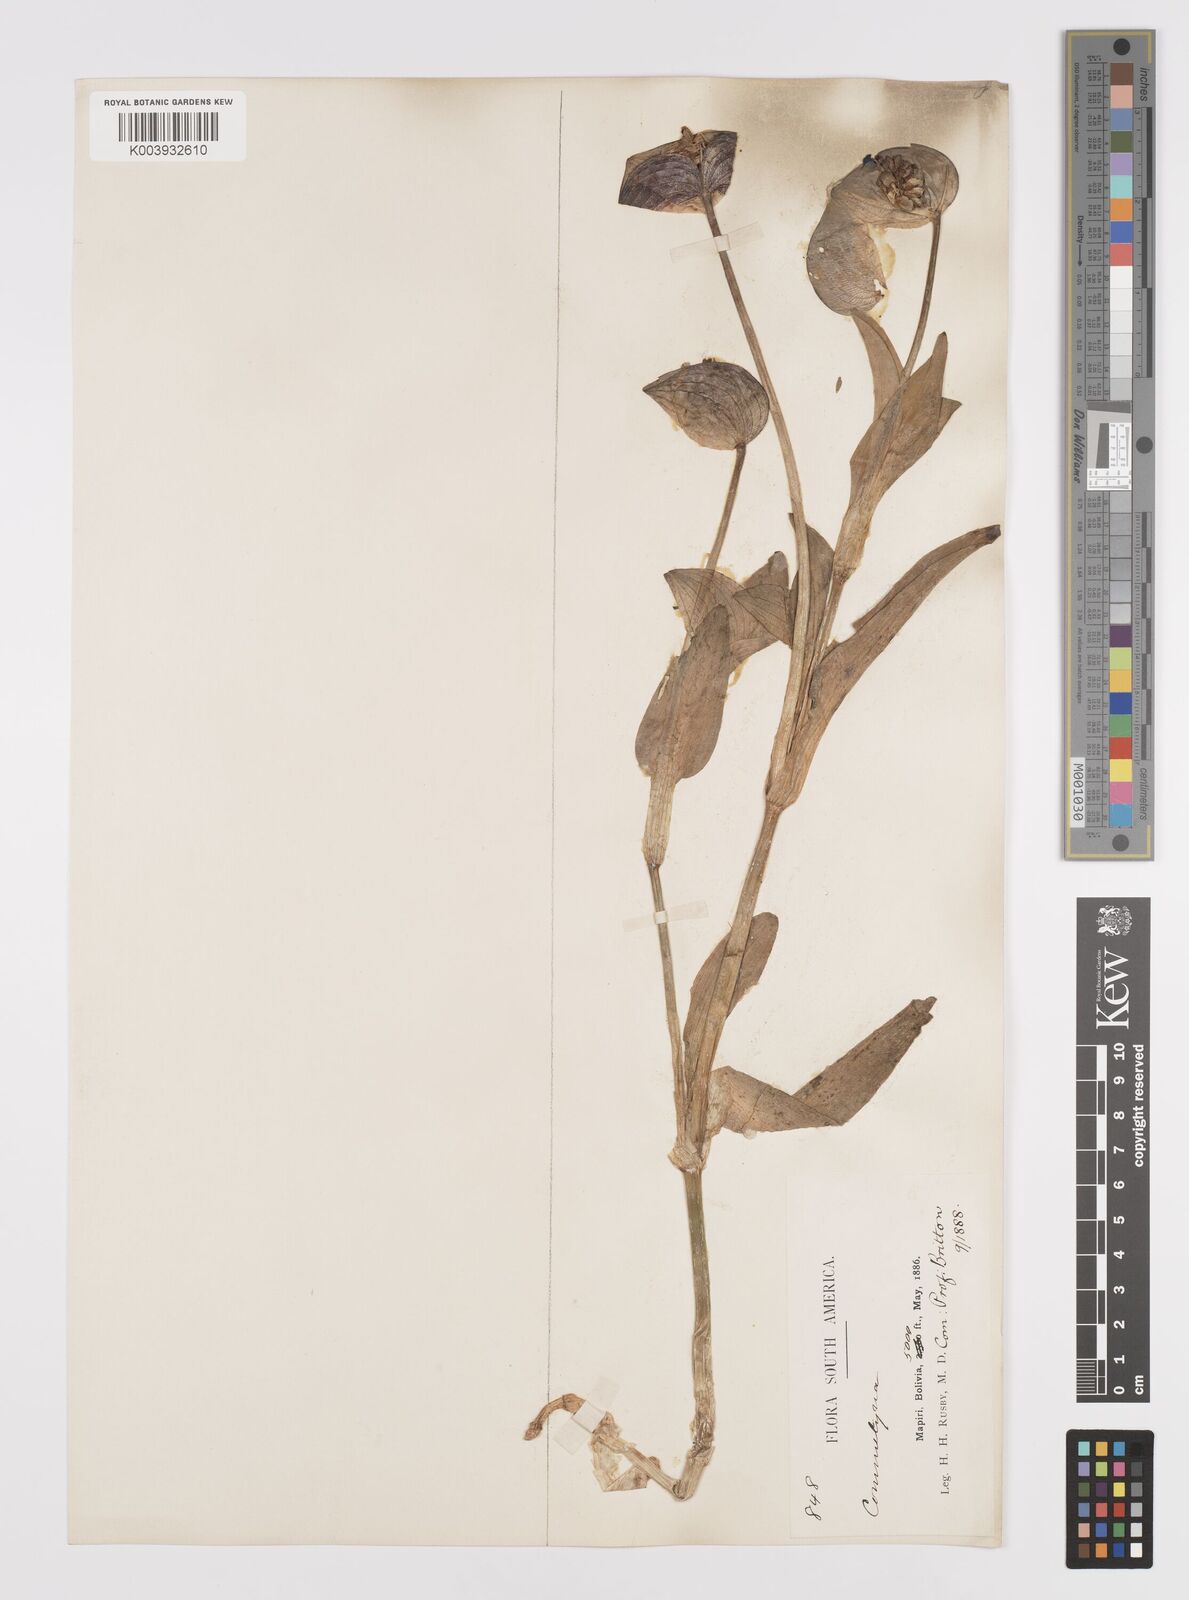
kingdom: Plantae
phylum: Tracheophyta
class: Liliopsida
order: Commelinales
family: Commelinaceae
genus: Commelina
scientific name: Commelina elliptica
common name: Peruvian spiderwort
